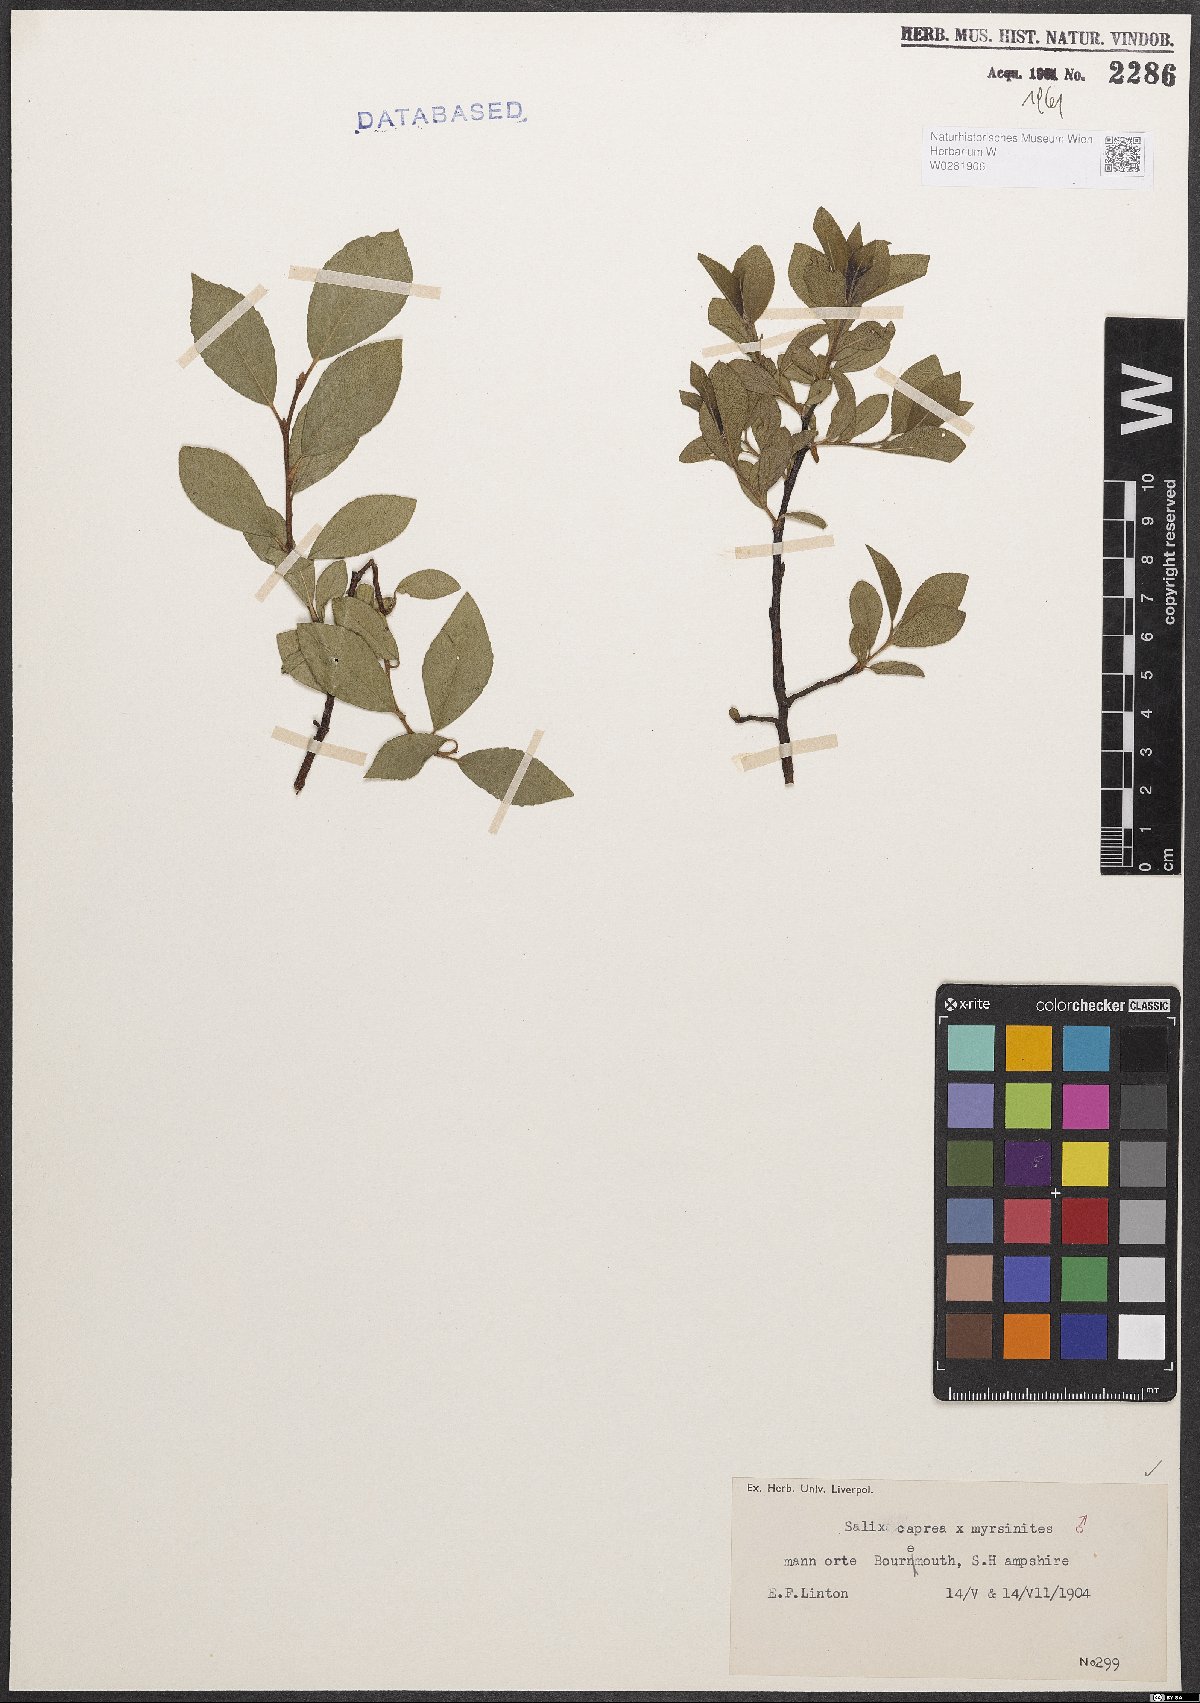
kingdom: Plantae
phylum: Tracheophyta
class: Magnoliopsida
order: Malpighiales
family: Salicaceae
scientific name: Salicaceae
